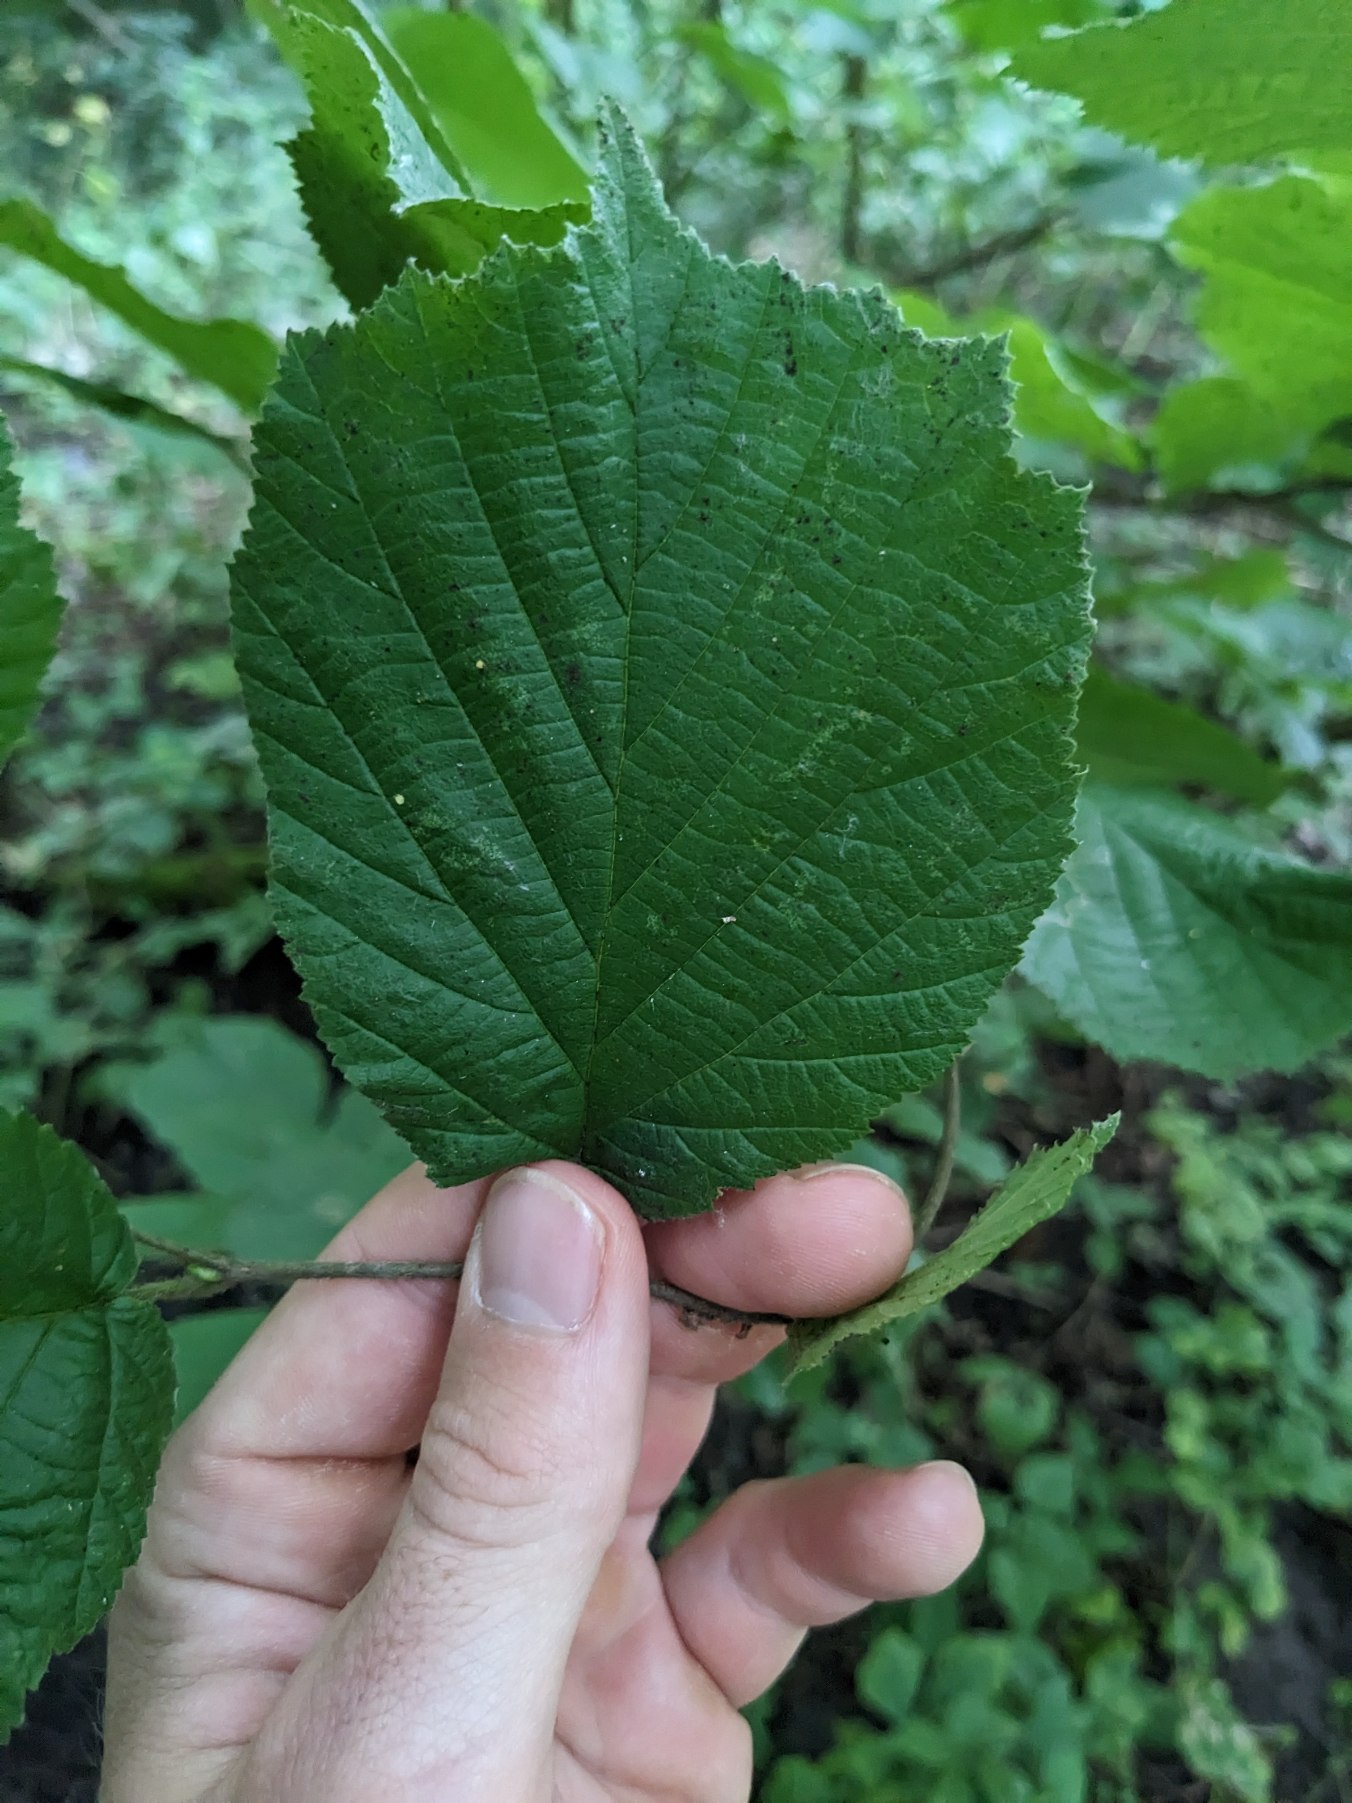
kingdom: Plantae
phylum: Tracheophyta
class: Magnoliopsida
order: Fagales
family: Betulaceae
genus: Corylus
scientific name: Corylus avellana
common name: Hassel
